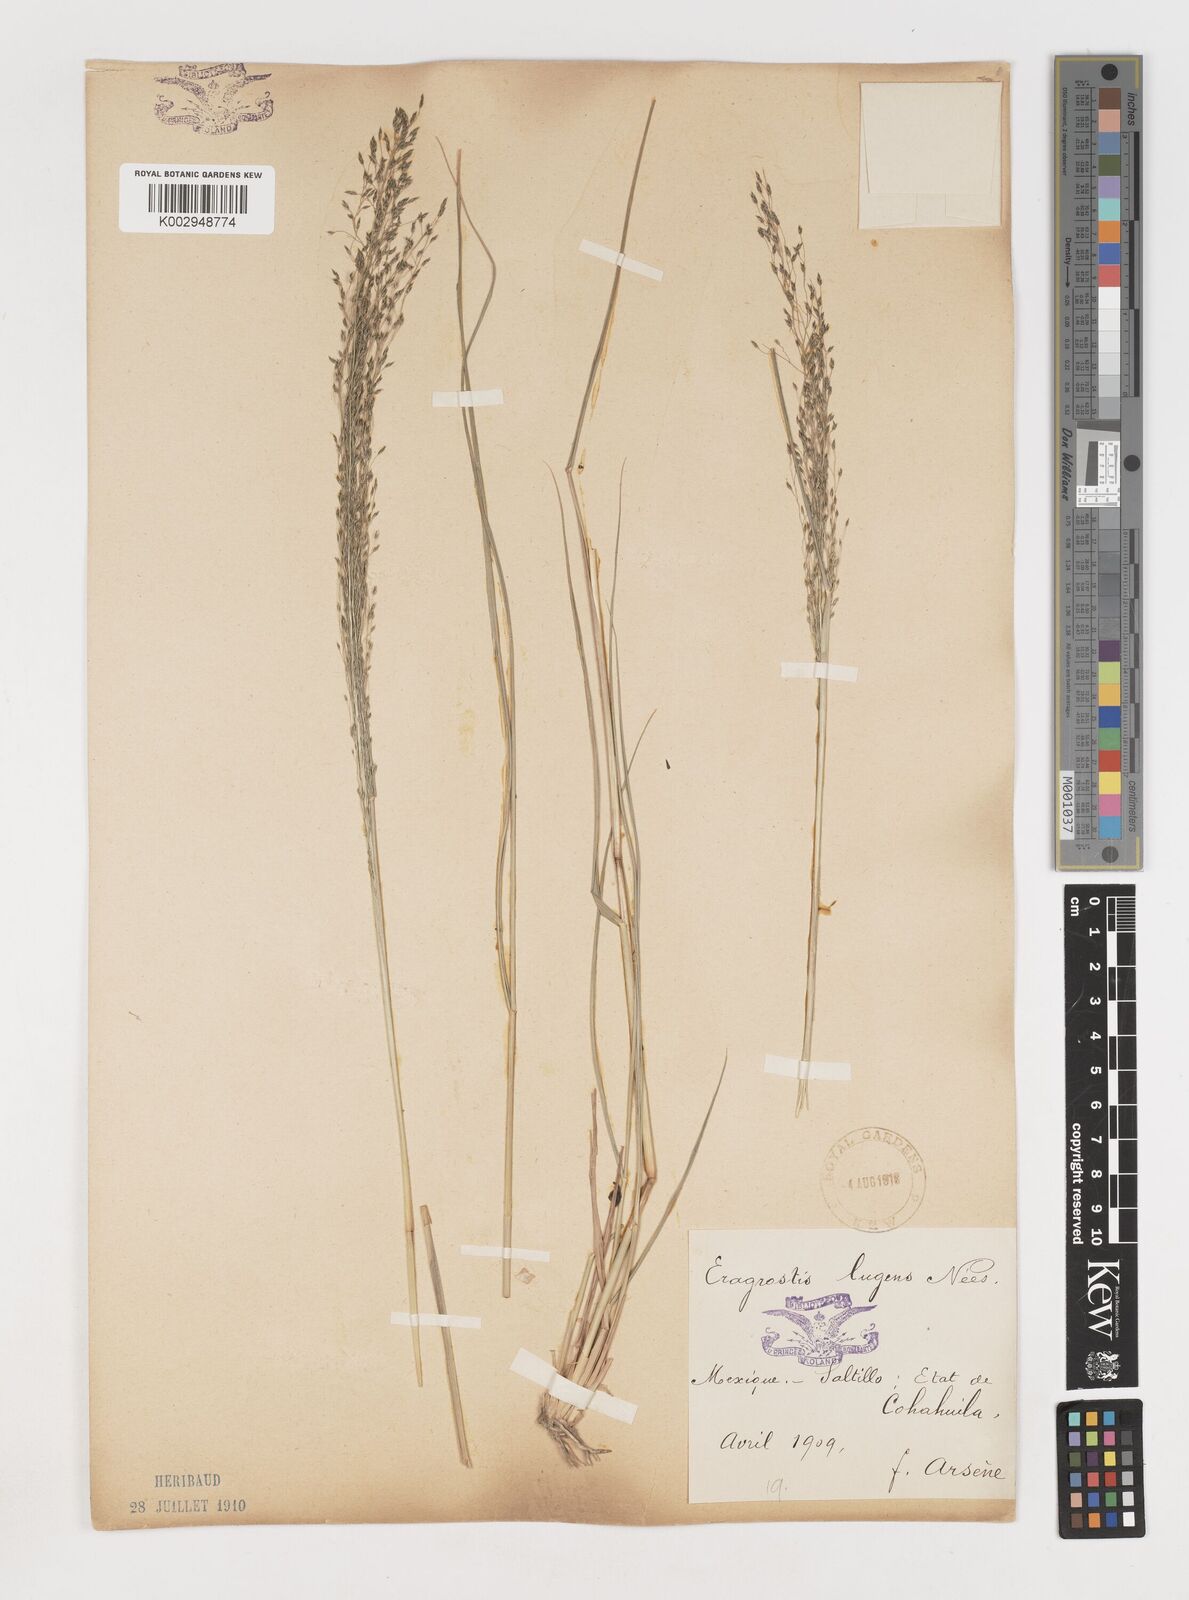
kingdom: Plantae
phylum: Tracheophyta
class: Liliopsida
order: Poales
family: Poaceae
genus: Eragrostis
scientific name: Eragrostis
